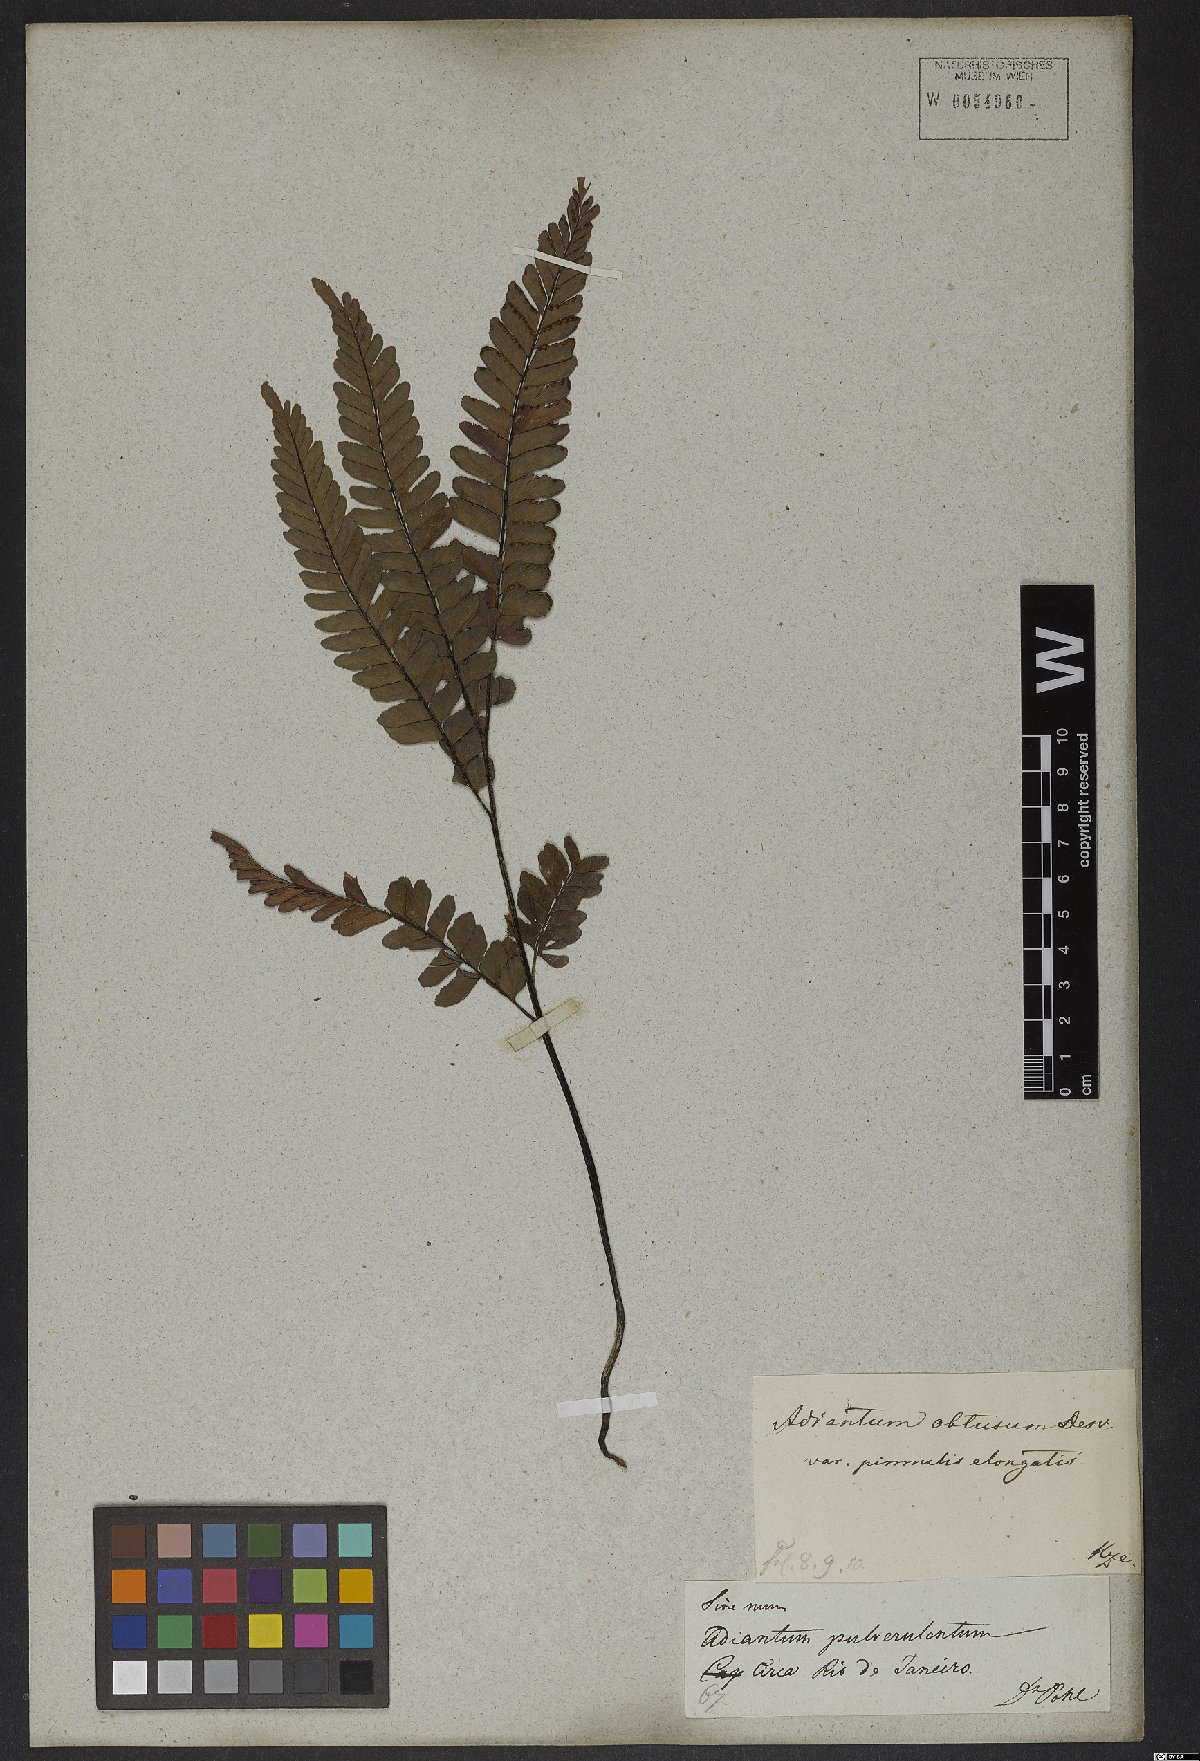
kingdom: Plantae
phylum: Tracheophyta
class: Polypodiopsida
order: Polypodiales
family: Pteridaceae
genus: Adiantum
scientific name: Adiantum serratodentatum
